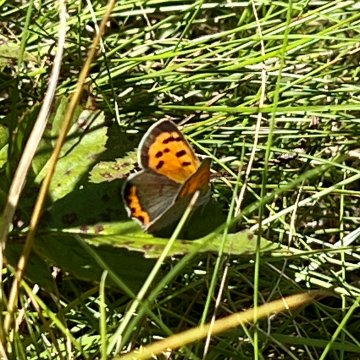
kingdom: Animalia
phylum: Arthropoda
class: Insecta
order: Lepidoptera
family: Lycaenidae
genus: Lycaena
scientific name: Lycaena phlaeas
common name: American Copper
